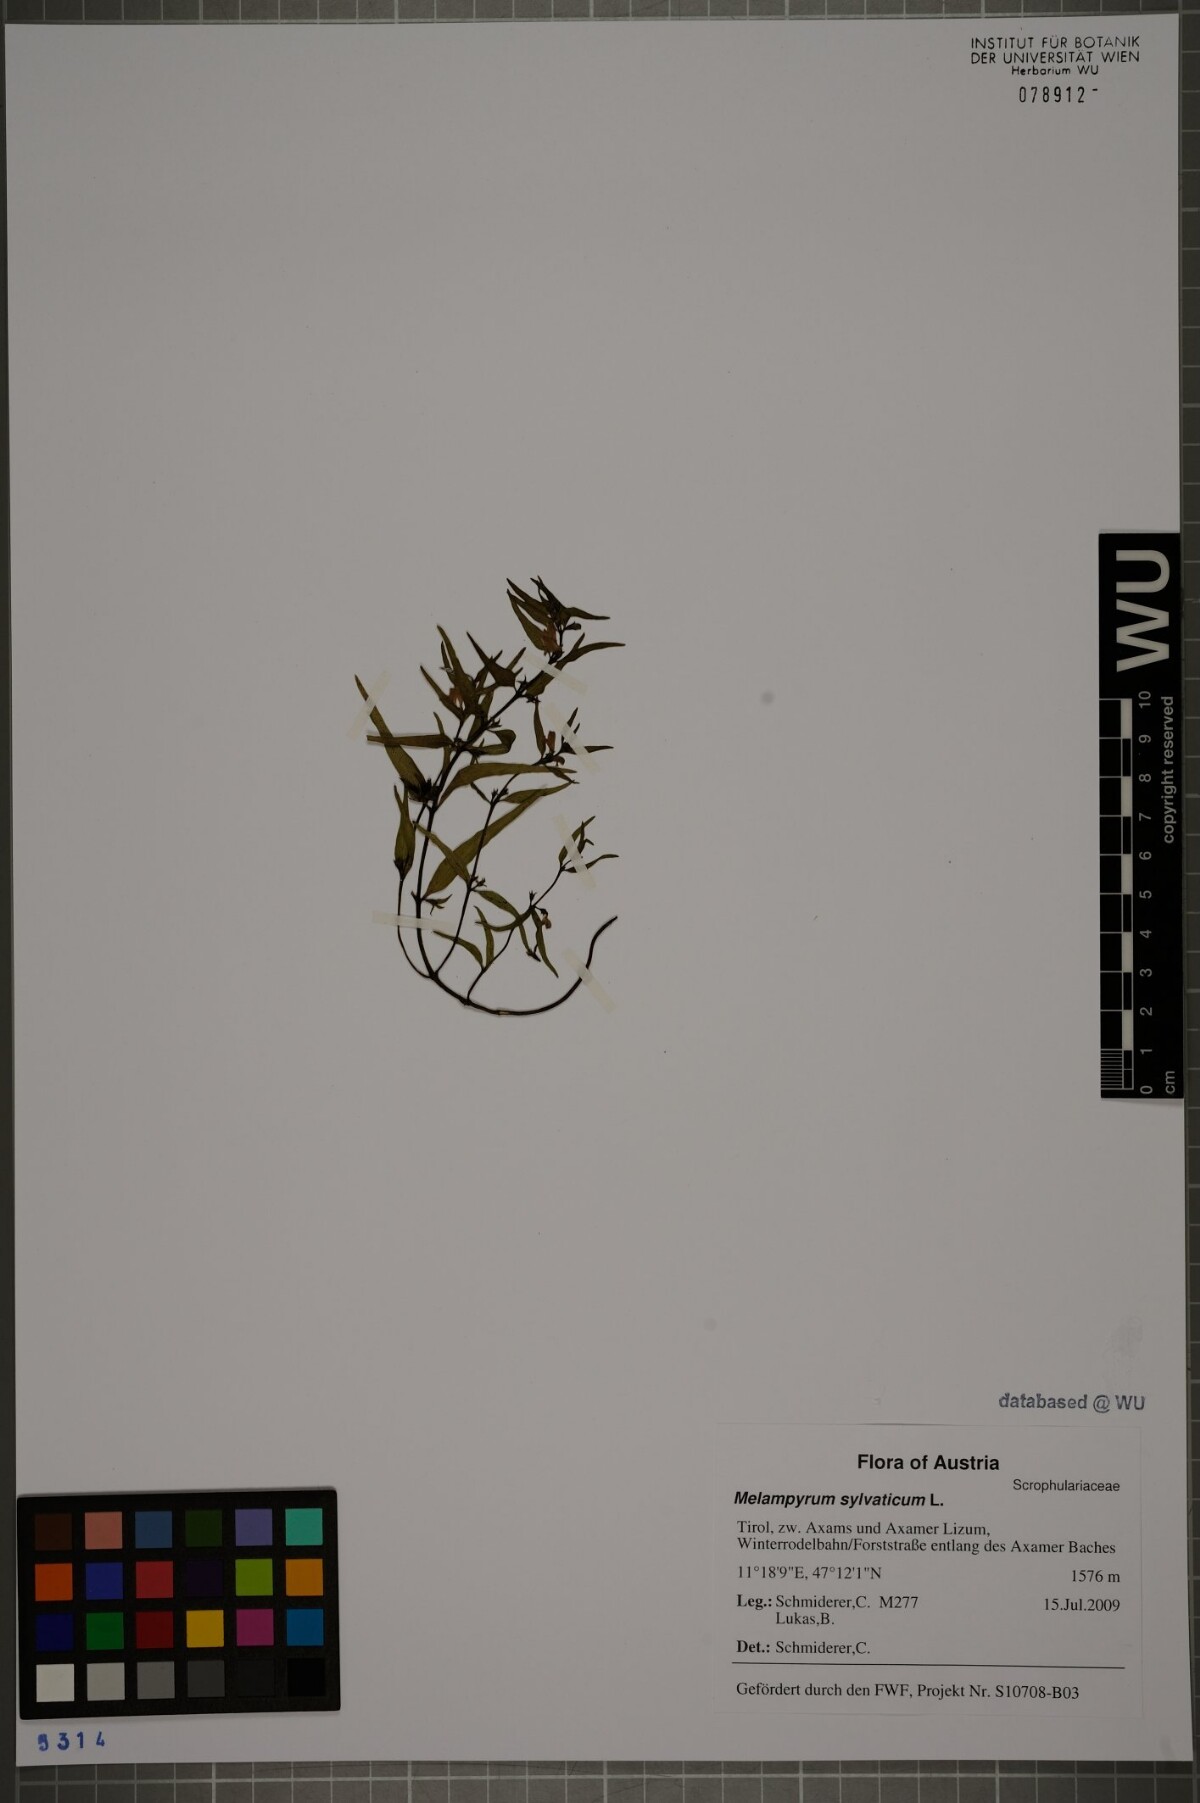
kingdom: Plantae
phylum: Tracheophyta
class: Magnoliopsida
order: Lamiales
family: Orobanchaceae
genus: Melampyrum
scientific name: Melampyrum sylvaticum
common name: Small cow-wheat
